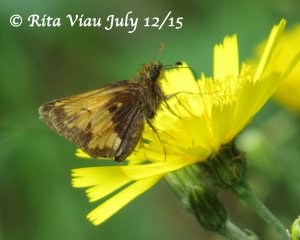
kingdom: Animalia
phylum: Arthropoda
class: Insecta
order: Lepidoptera
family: Hesperiidae
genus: Lon
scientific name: Lon hobomok
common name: Hobomok Skipper
